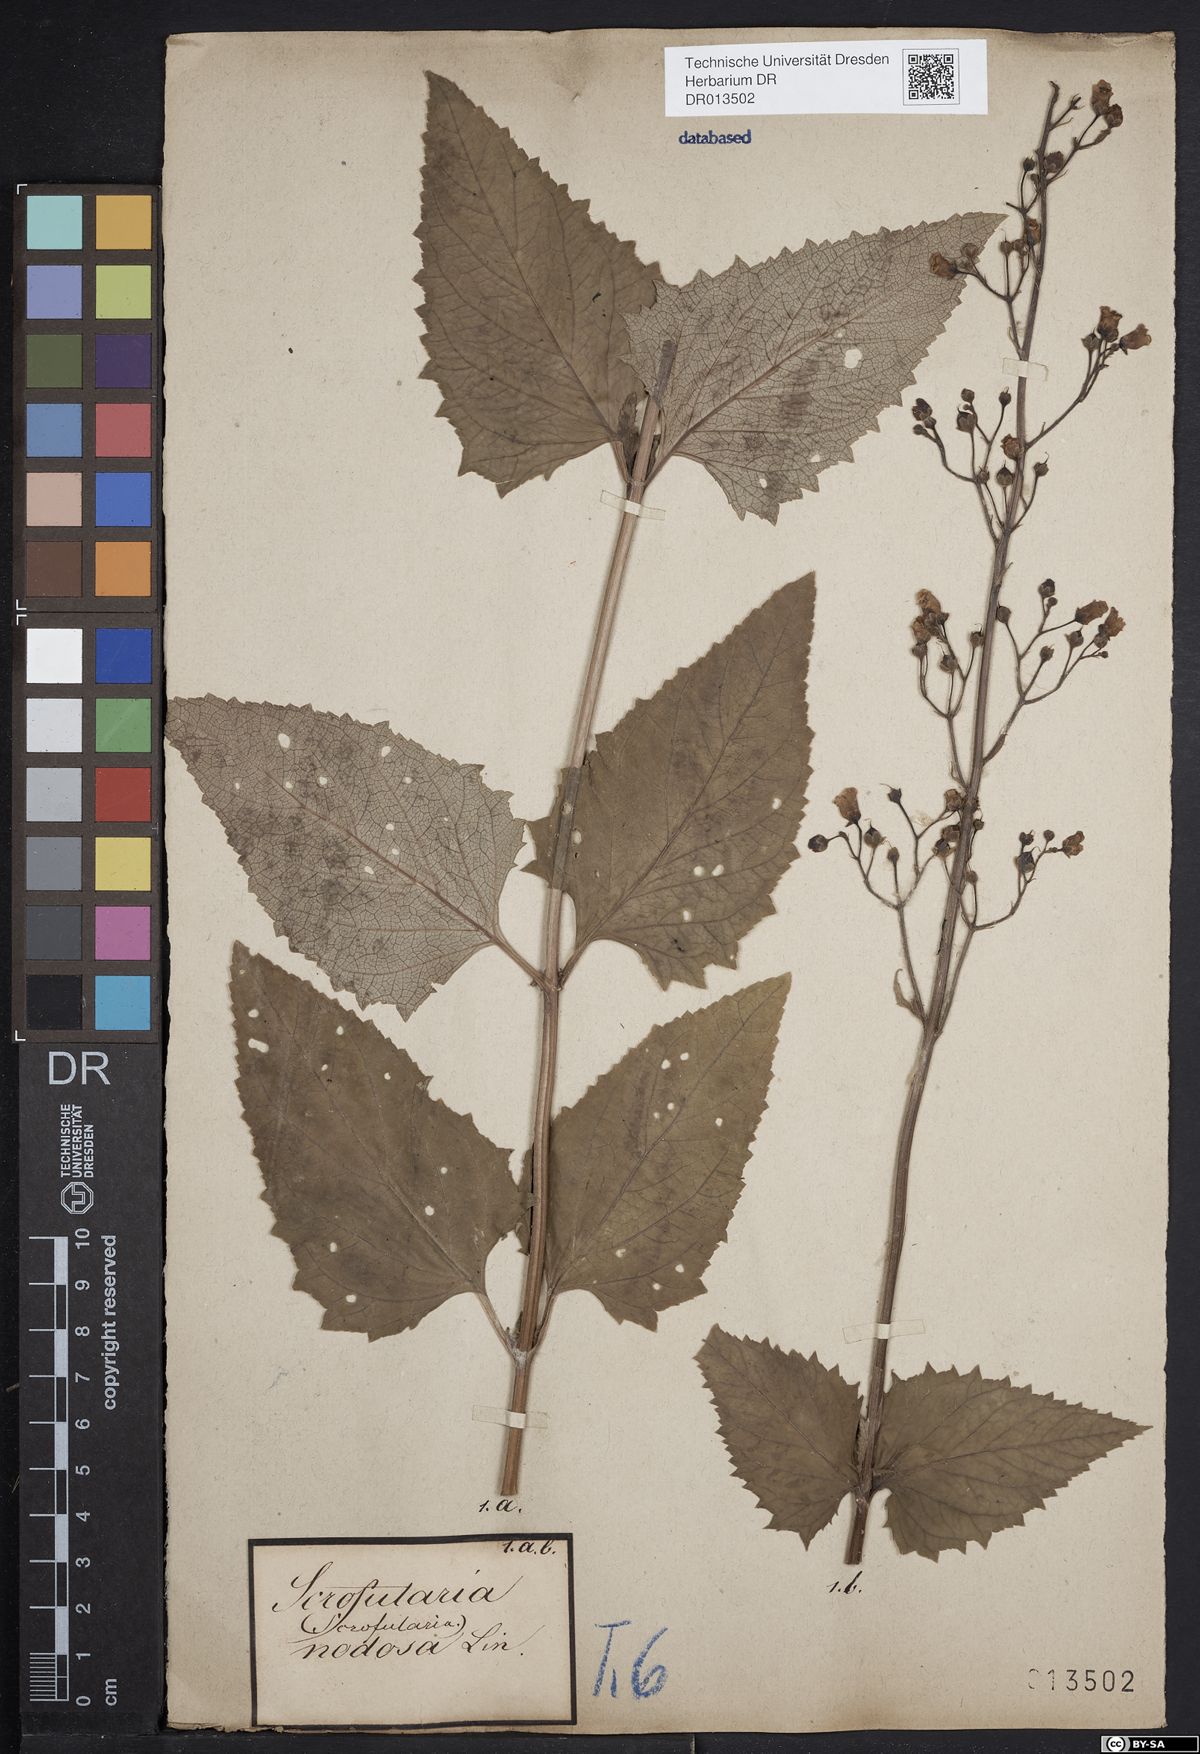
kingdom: Plantae
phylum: Tracheophyta
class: Magnoliopsida
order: Lamiales
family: Scrophulariaceae
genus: Scrophularia
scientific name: Scrophularia nodosa
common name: Common figwort
